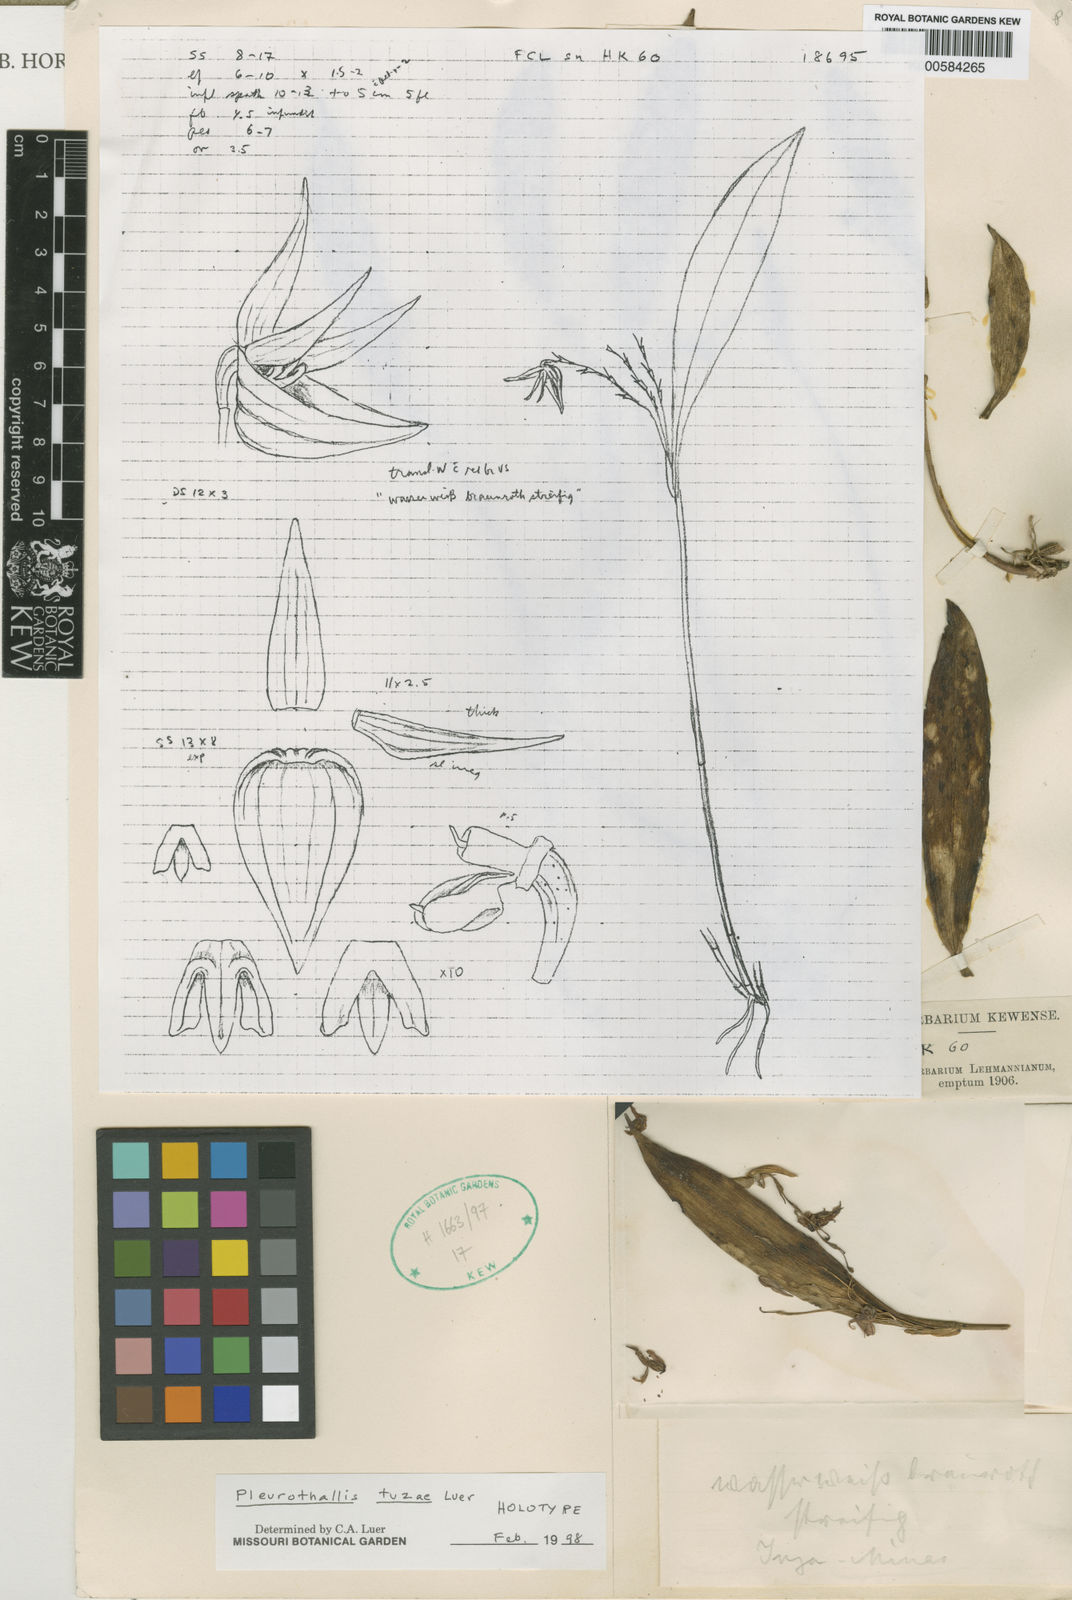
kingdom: Plantae
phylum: Tracheophyta
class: Liliopsida
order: Asparagales
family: Orchidaceae
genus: Pleurothallis
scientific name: Pleurothallis tuzae
